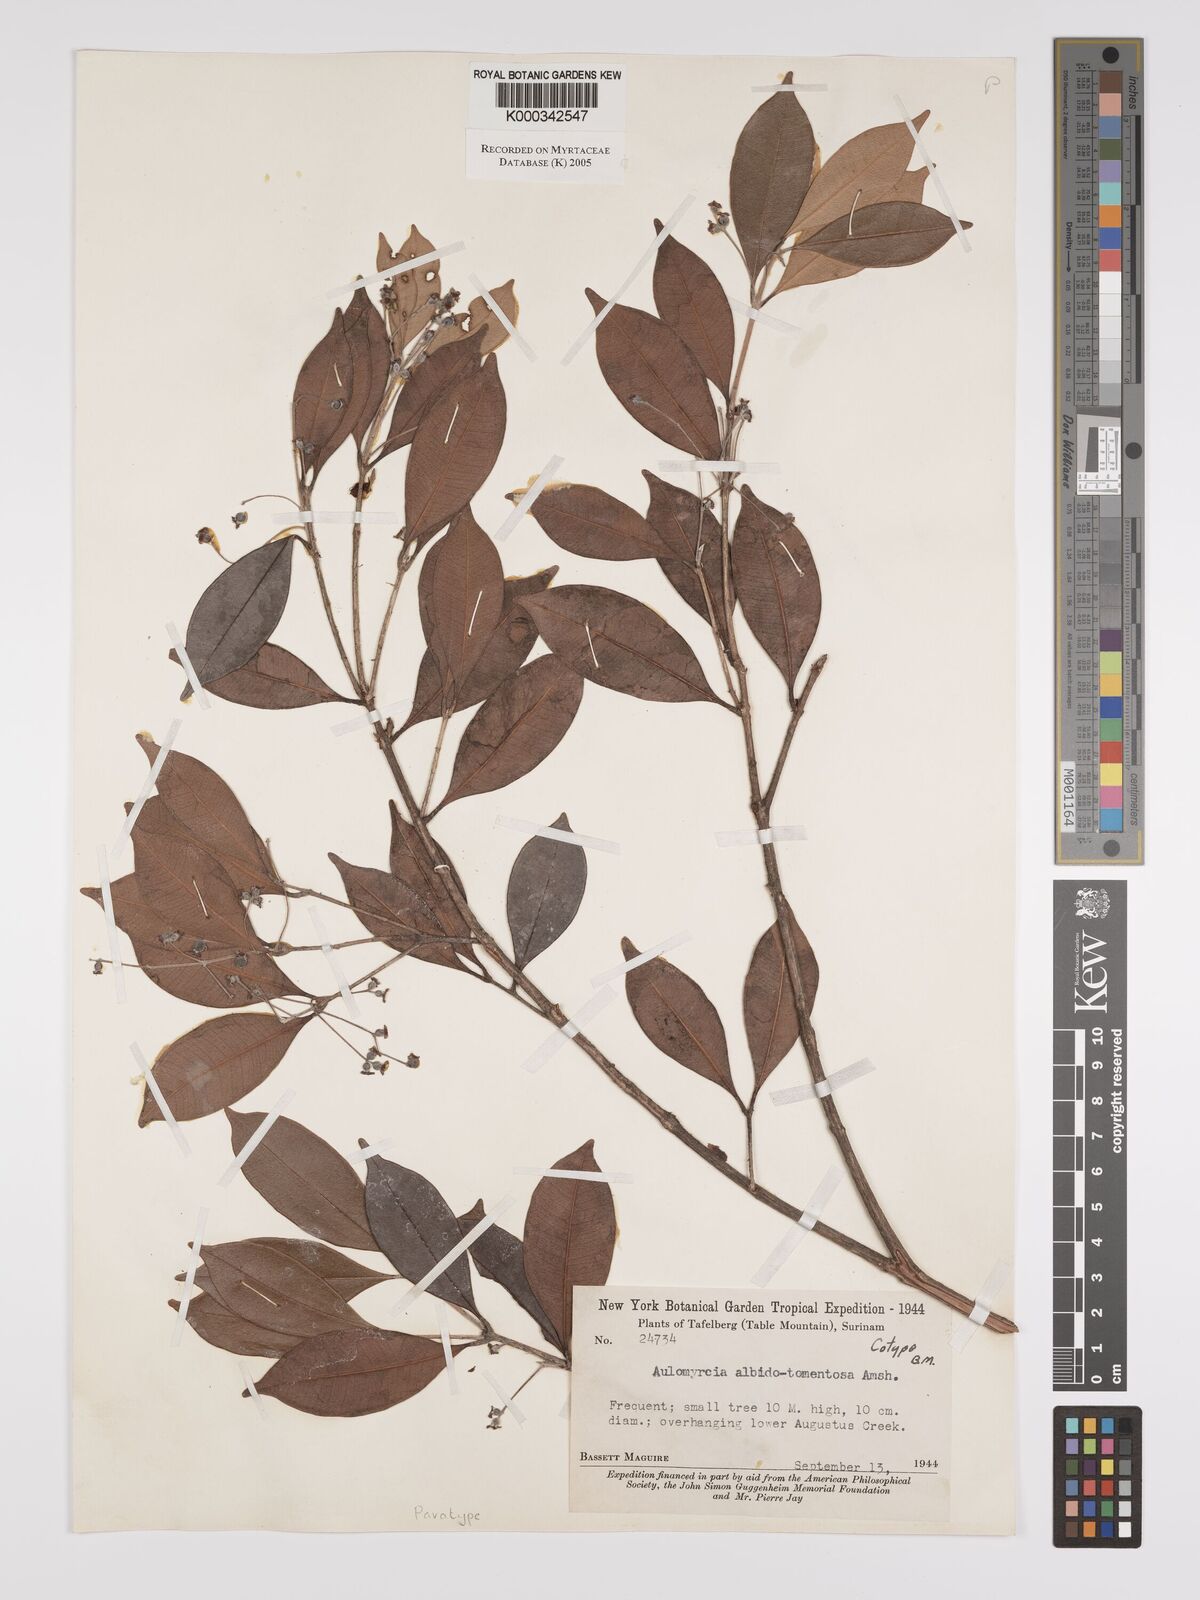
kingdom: Plantae
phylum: Tracheophyta
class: Magnoliopsida
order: Myrtales
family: Myrtaceae
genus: Myrcia
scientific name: Myrcia albidotomentosa
